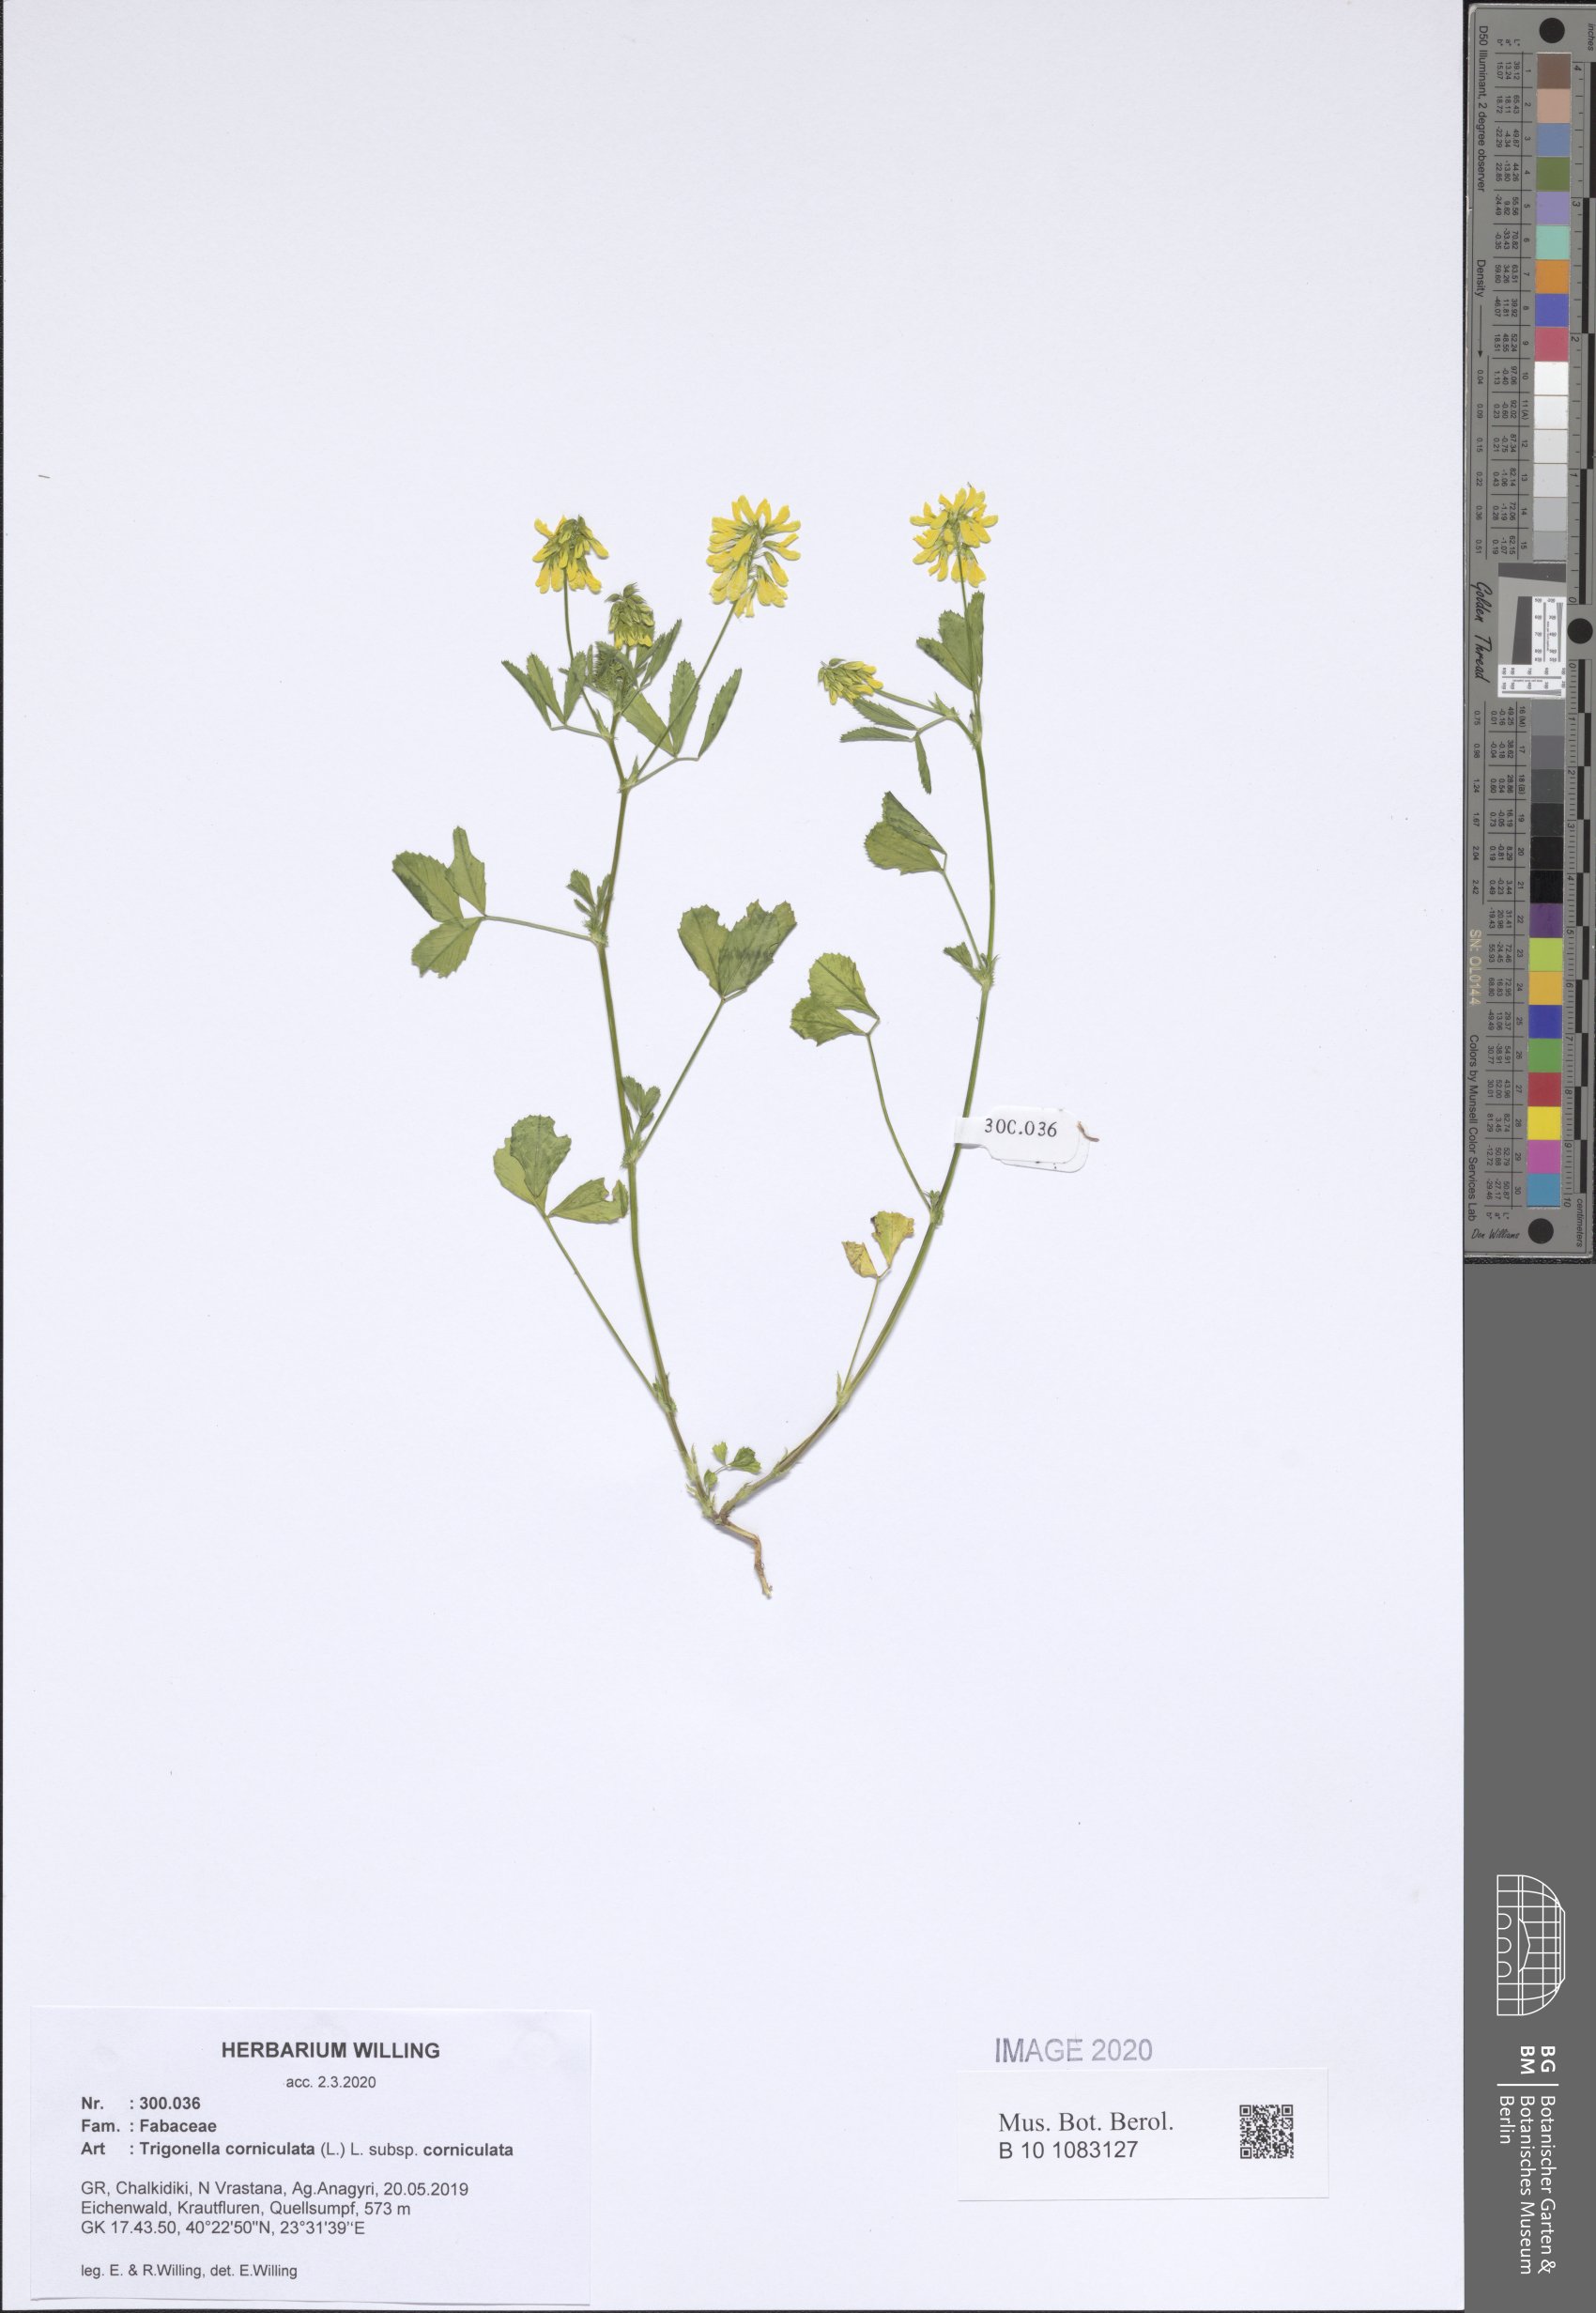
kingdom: Plantae
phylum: Tracheophyta
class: Magnoliopsida
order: Fabales
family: Fabaceae
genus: Trigonella
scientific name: Trigonella corniculata
